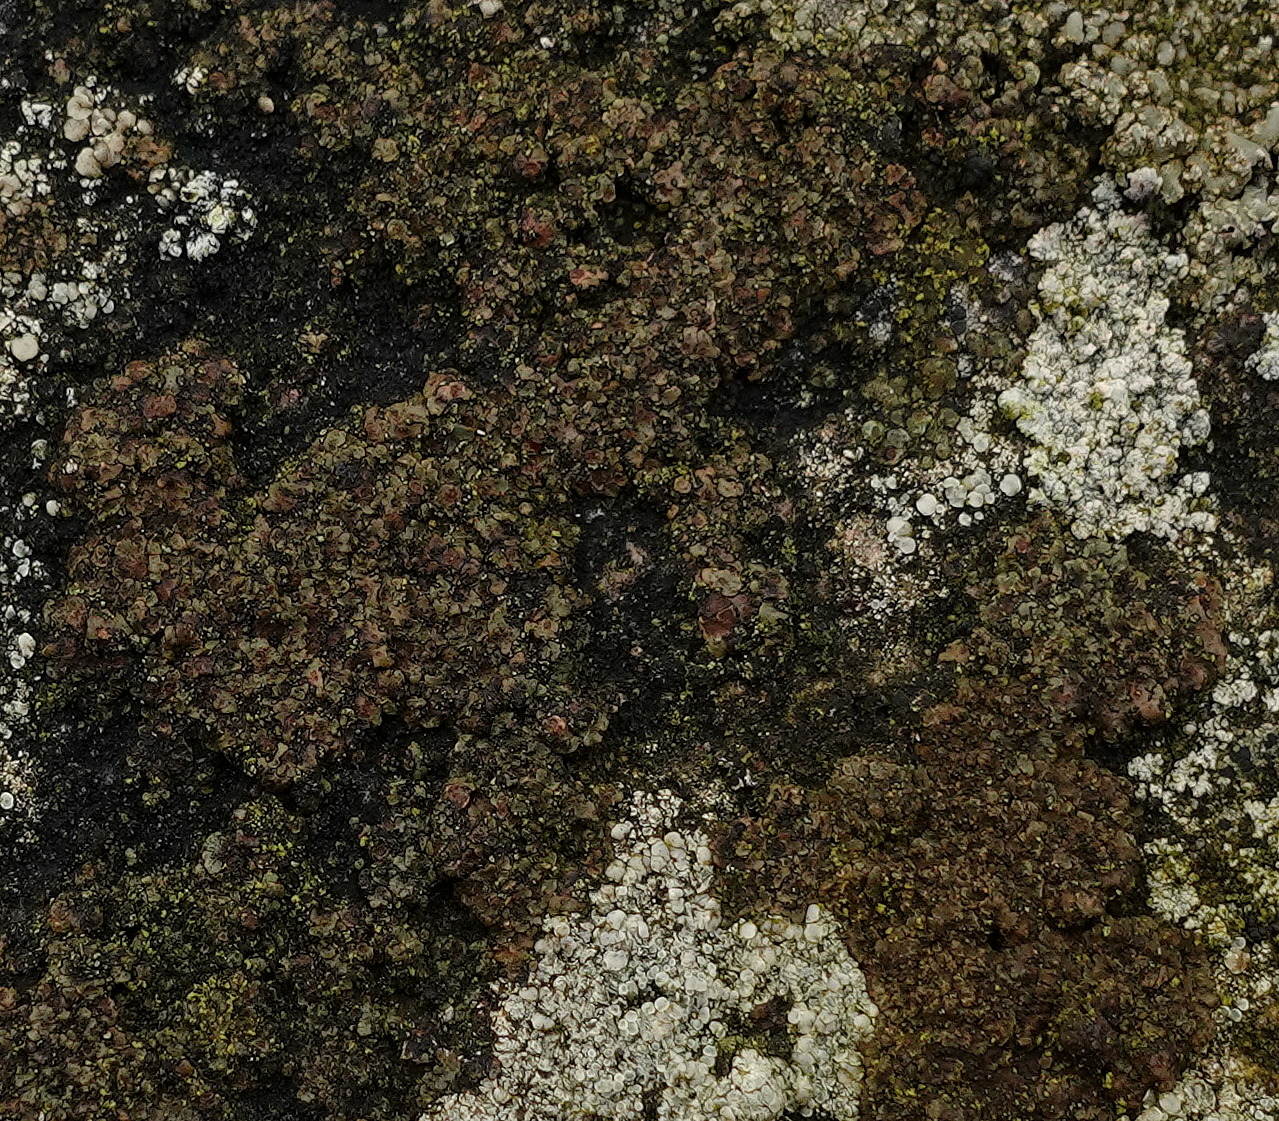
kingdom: Fungi
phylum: Ascomycota
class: Lecanoromycetes
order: Acarosporales
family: Acarosporaceae
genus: Acarospora
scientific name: Acarospora fuscata
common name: brun småsporelav
